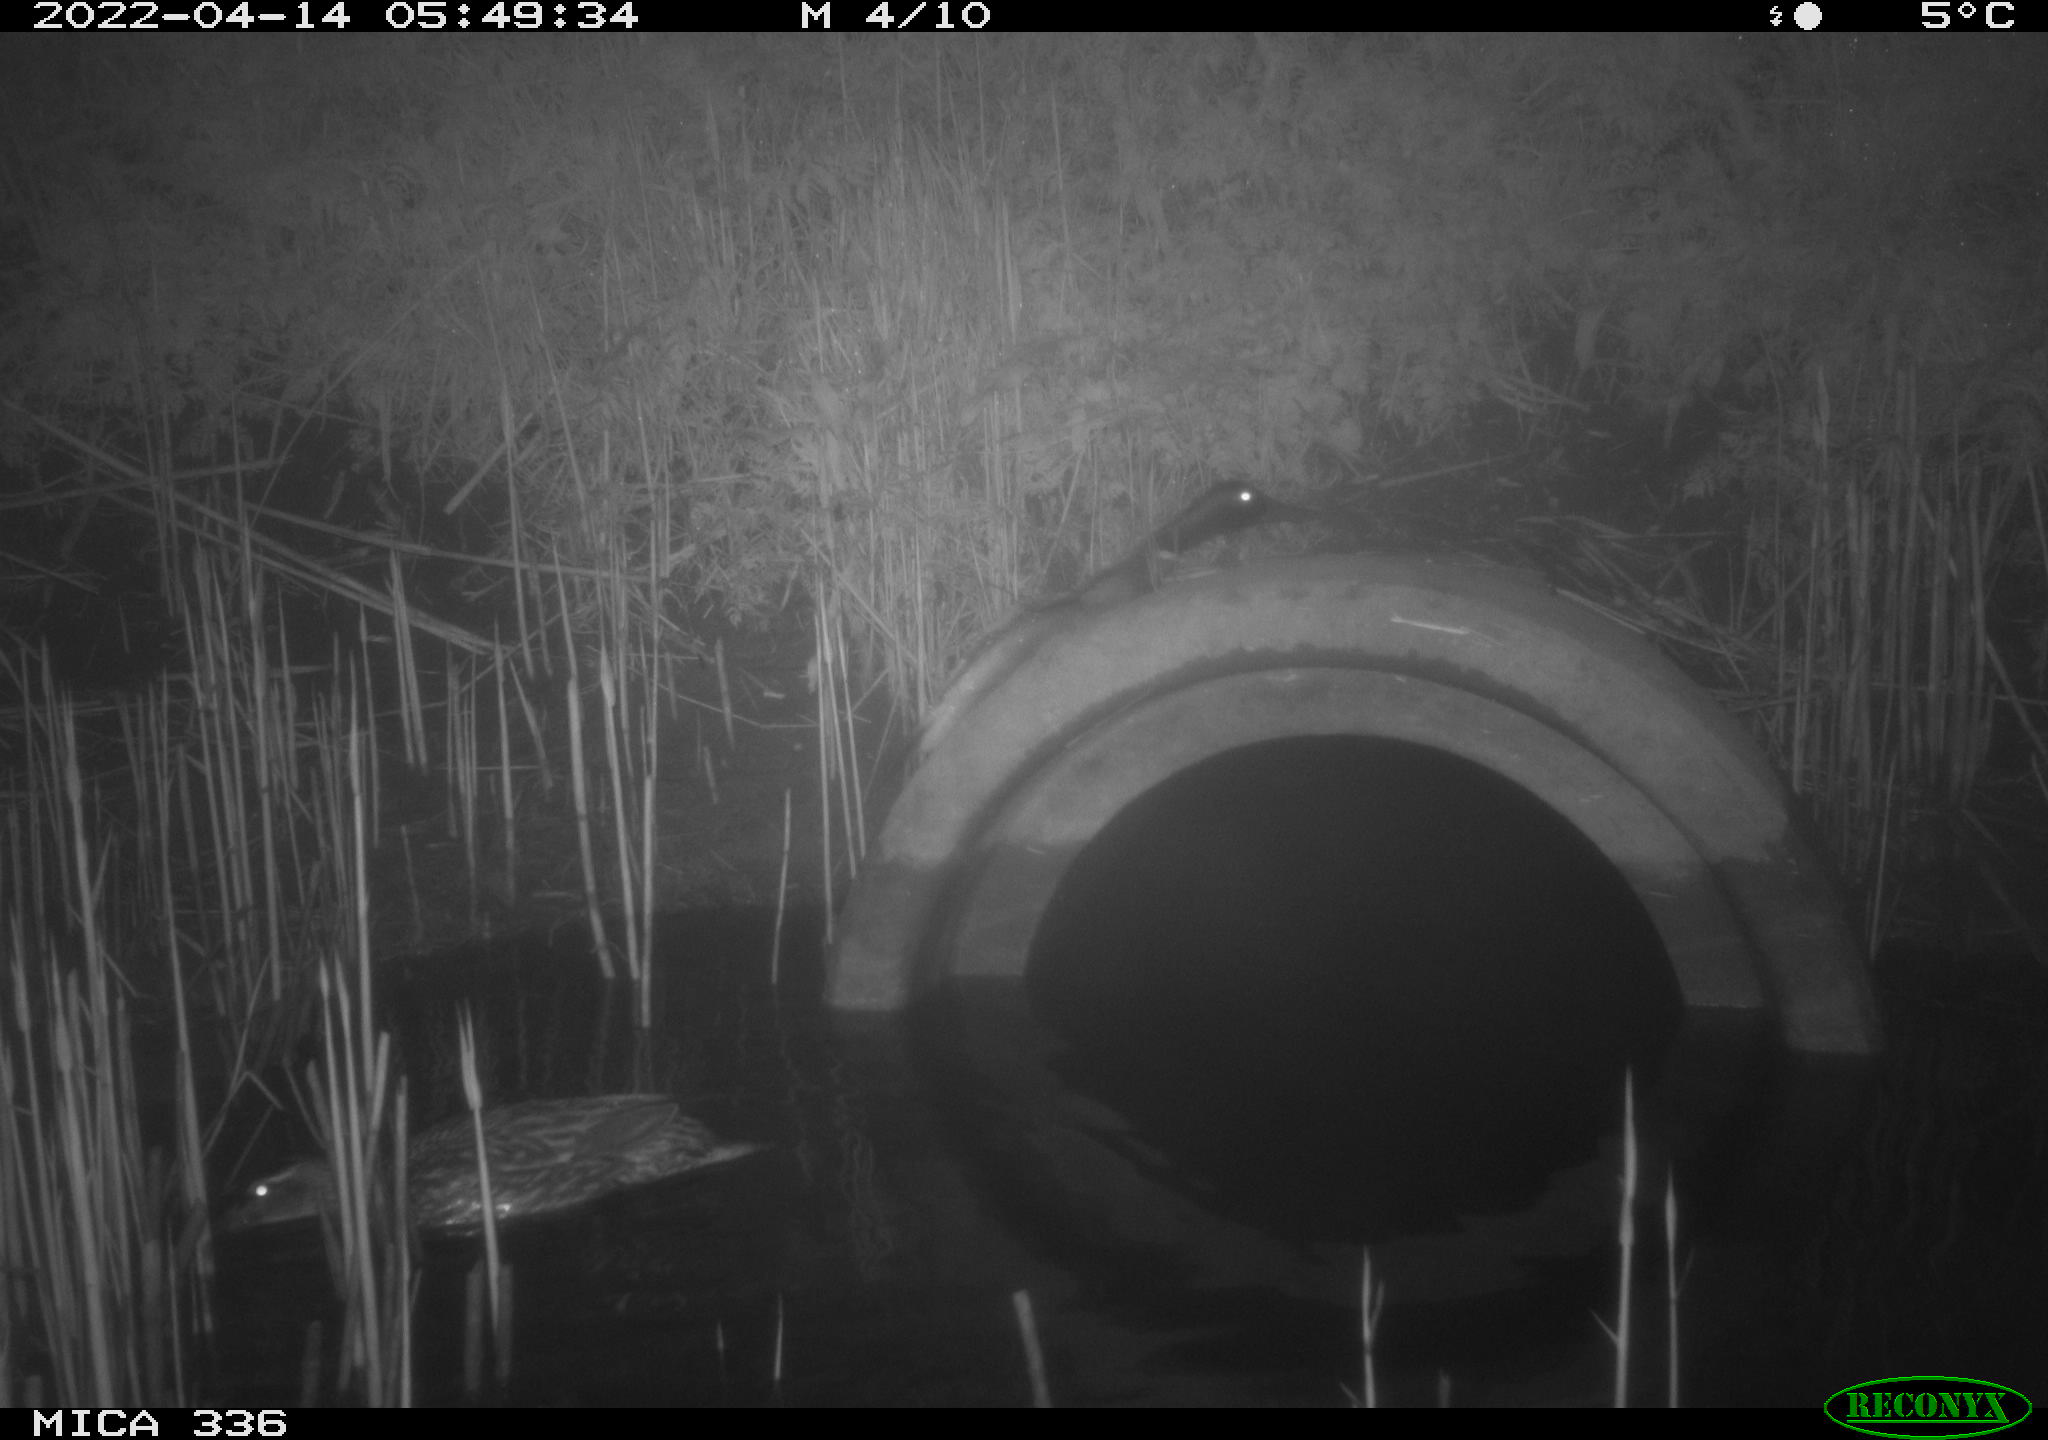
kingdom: Animalia
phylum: Chordata
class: Aves
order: Anseriformes
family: Anatidae
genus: Anas
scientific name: Anas platyrhynchos
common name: Mallard
